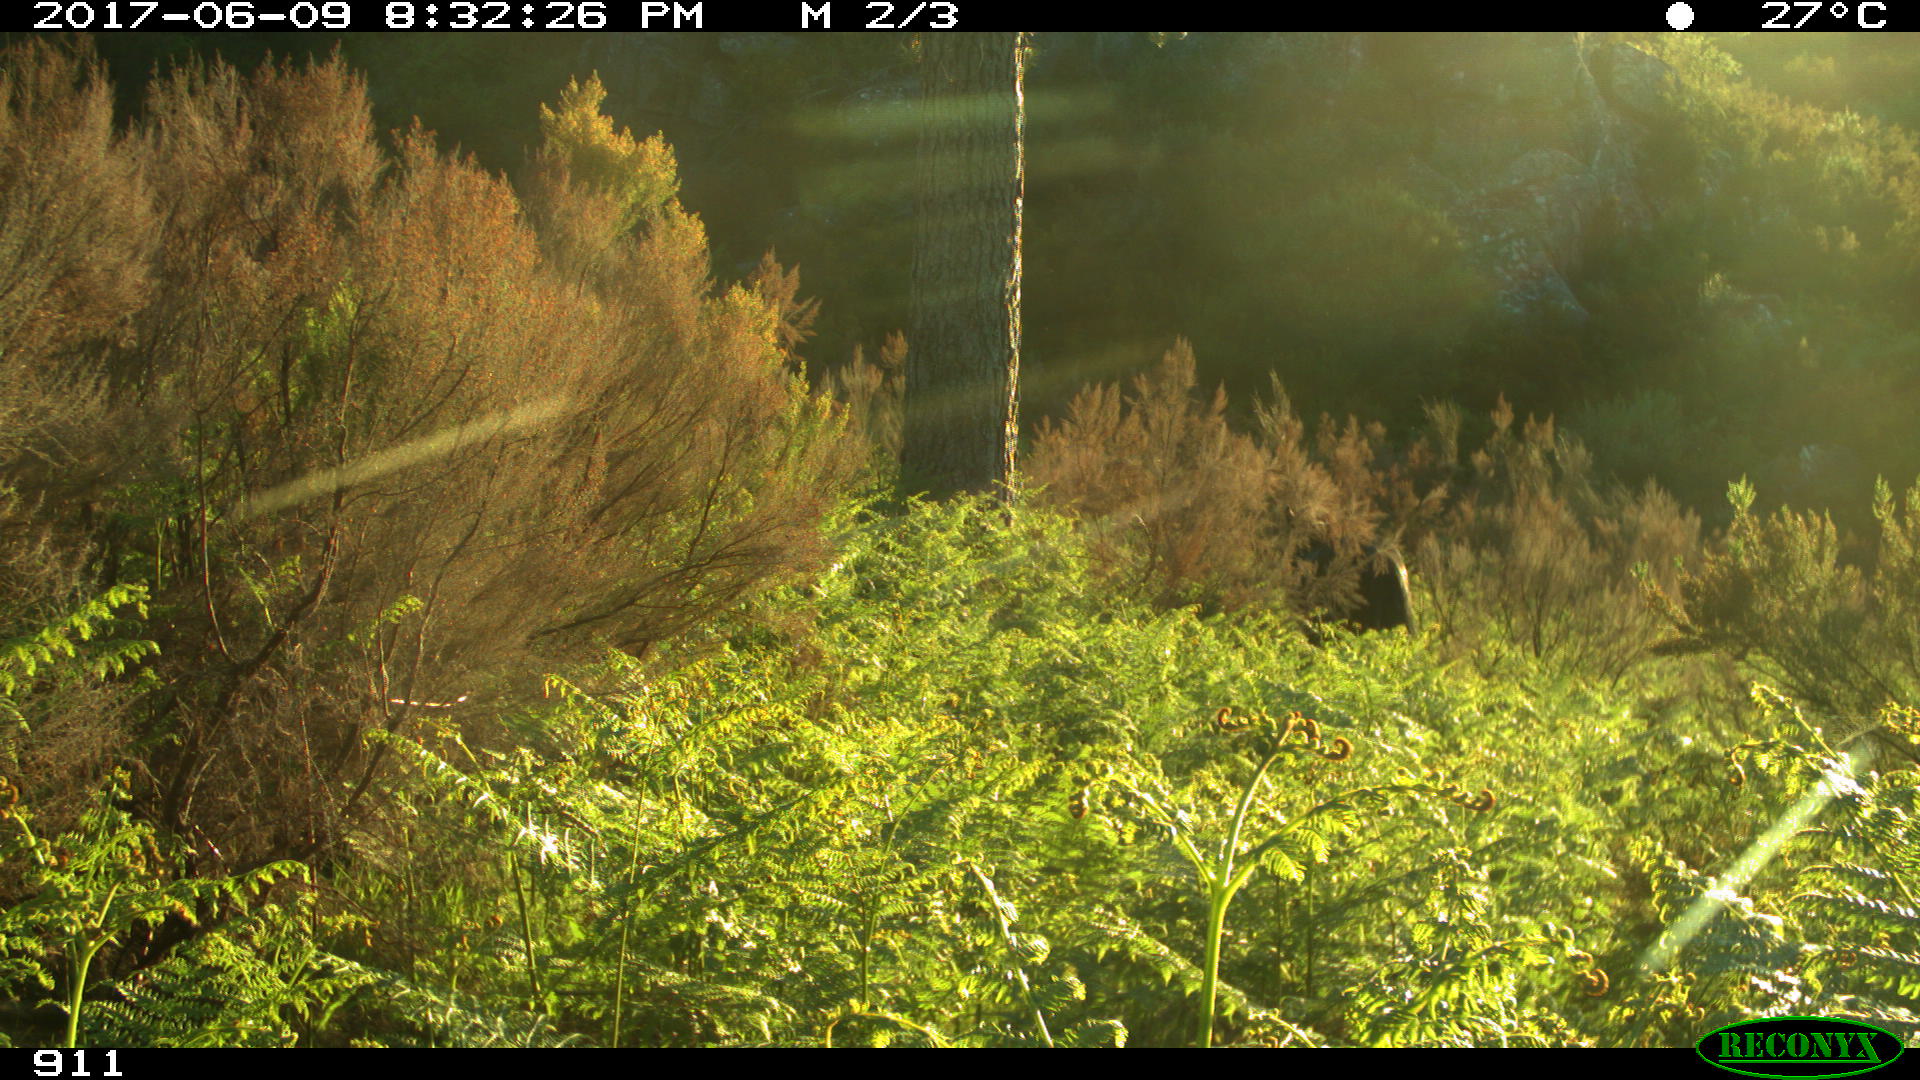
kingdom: Animalia
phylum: Chordata
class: Mammalia
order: Perissodactyla
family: Equidae
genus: Equus
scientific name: Equus caballus
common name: Horse
